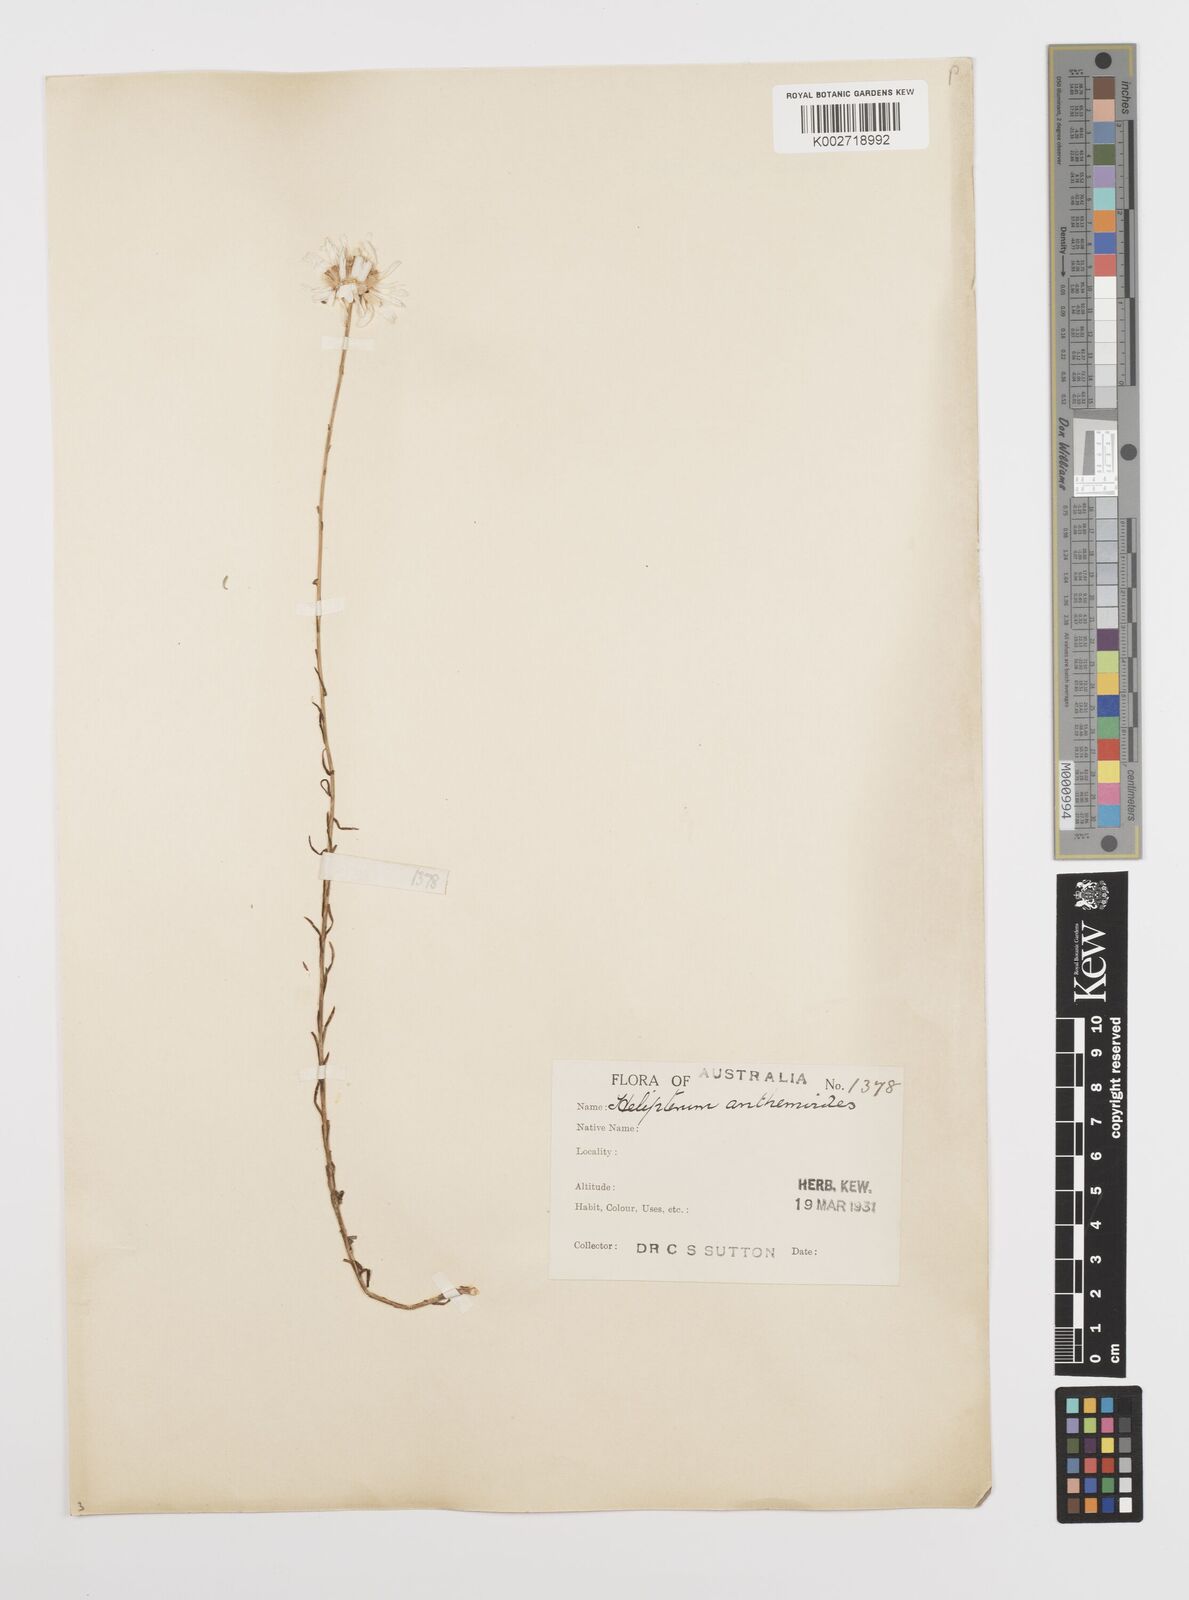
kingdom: Plantae
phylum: Tracheophyta
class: Magnoliopsida
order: Asterales
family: Asteraceae
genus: Rhodanthe
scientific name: Rhodanthe anthemoides
